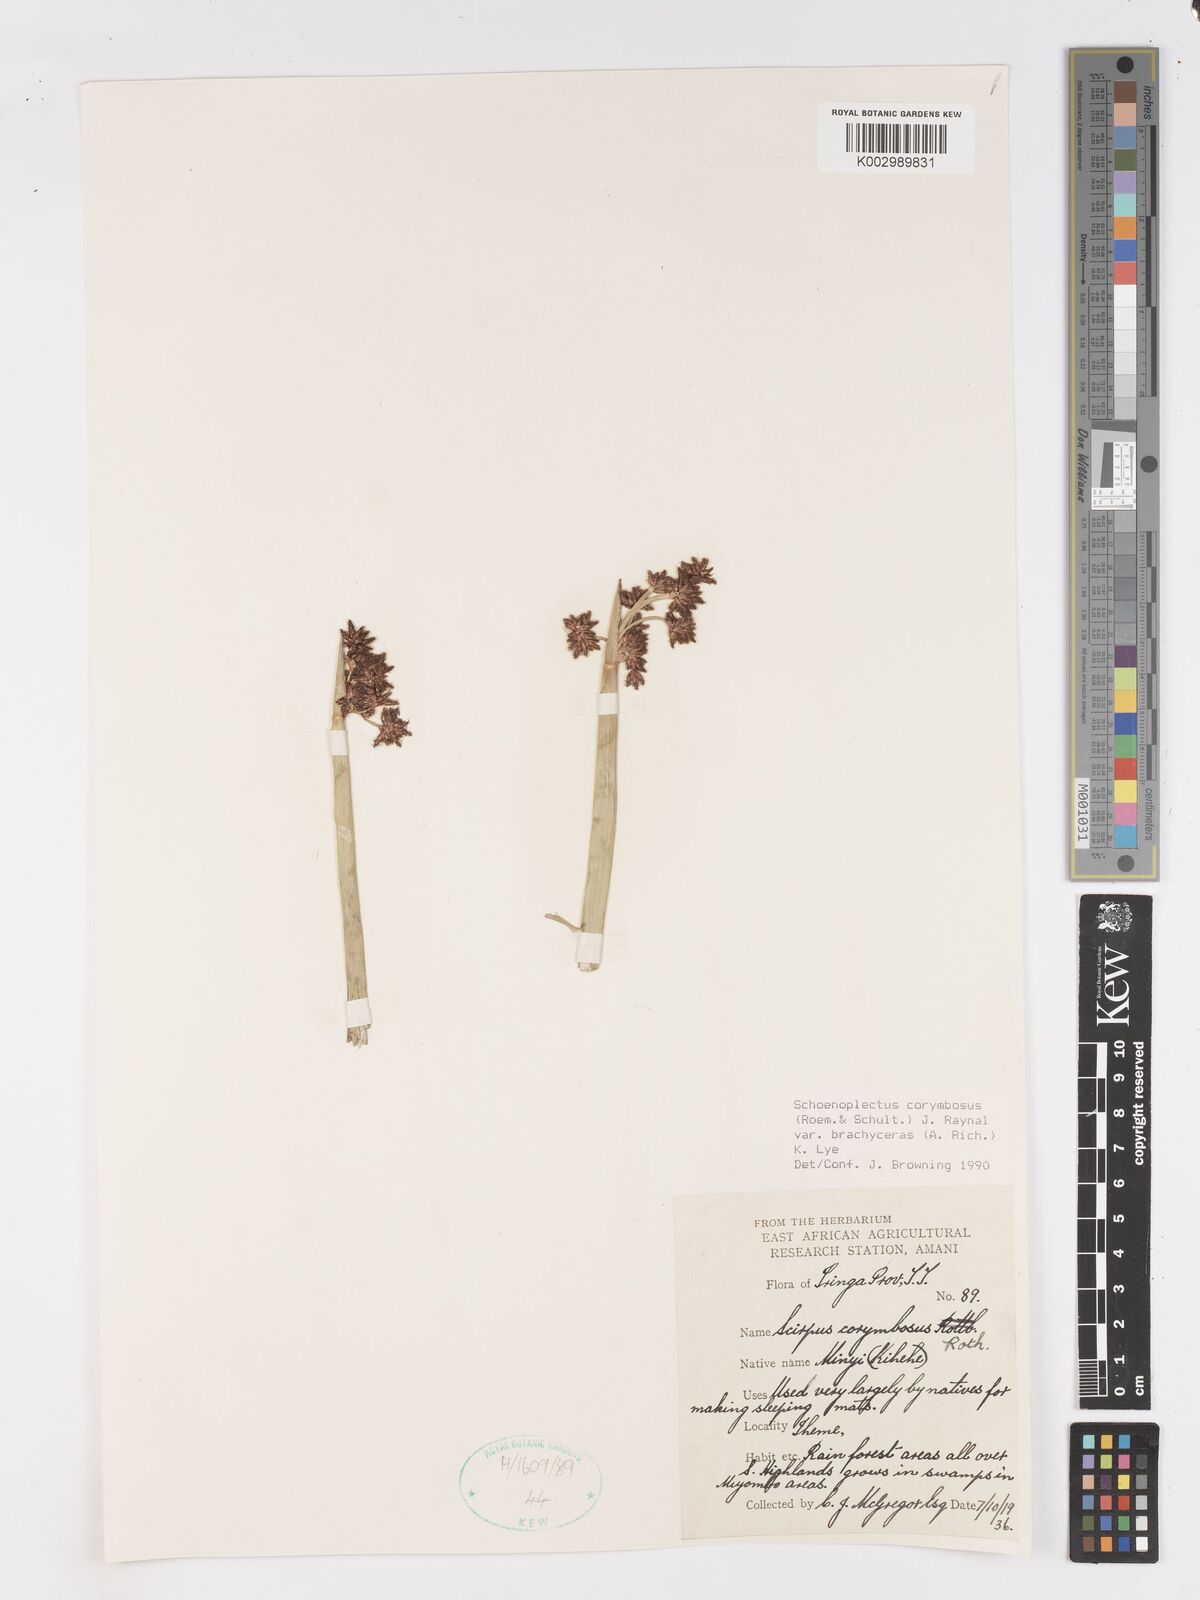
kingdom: Plantae
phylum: Tracheophyta
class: Liliopsida
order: Poales
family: Cyperaceae
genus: Schoenoplectiella
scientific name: Schoenoplectiella brachyceras
